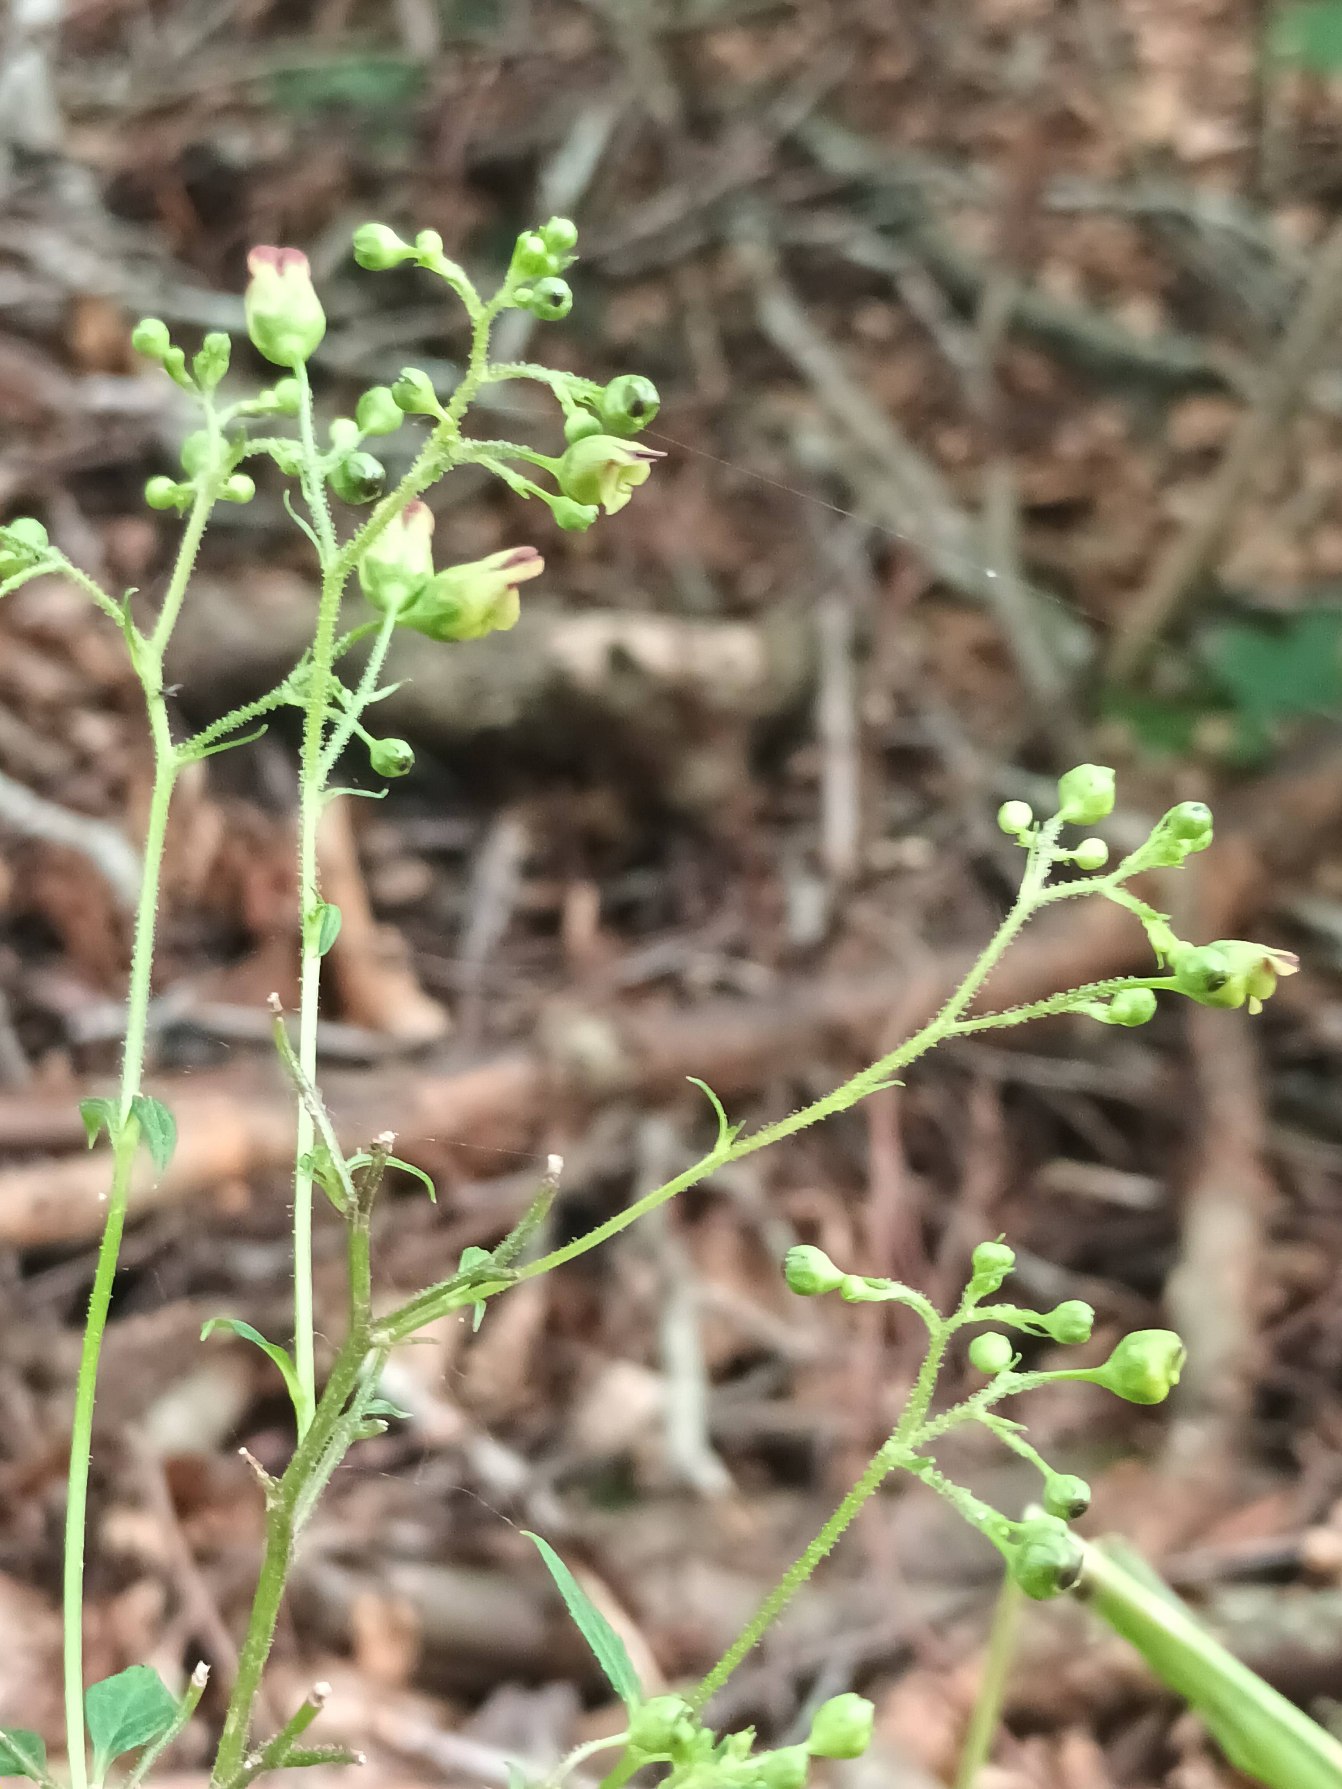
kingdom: Plantae
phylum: Tracheophyta
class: Magnoliopsida
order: Lamiales
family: Scrophulariaceae
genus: Scrophularia
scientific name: Scrophularia nodosa
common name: Knoldet brunrod
